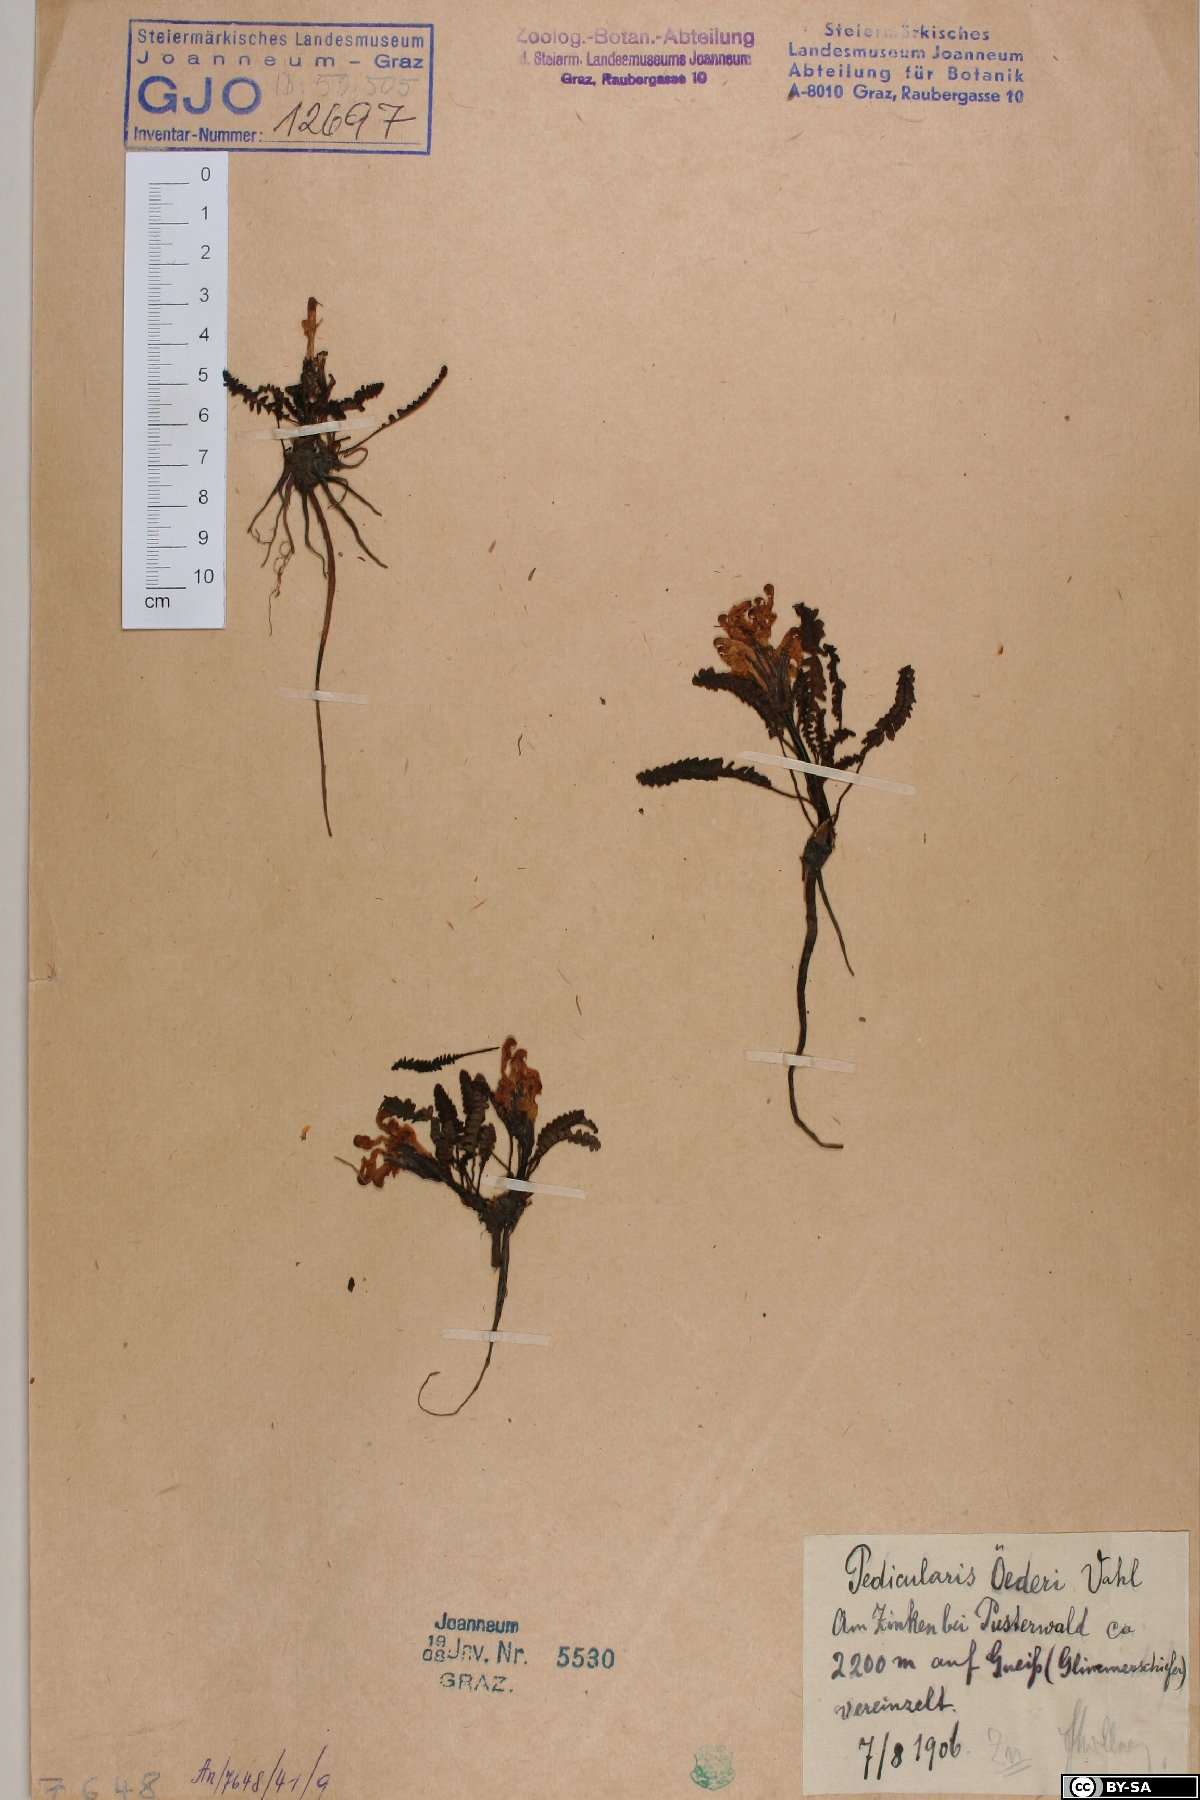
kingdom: Plantae
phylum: Tracheophyta
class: Magnoliopsida
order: Lamiales
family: Orobanchaceae
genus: Pedicularis
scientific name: Pedicularis oederi
